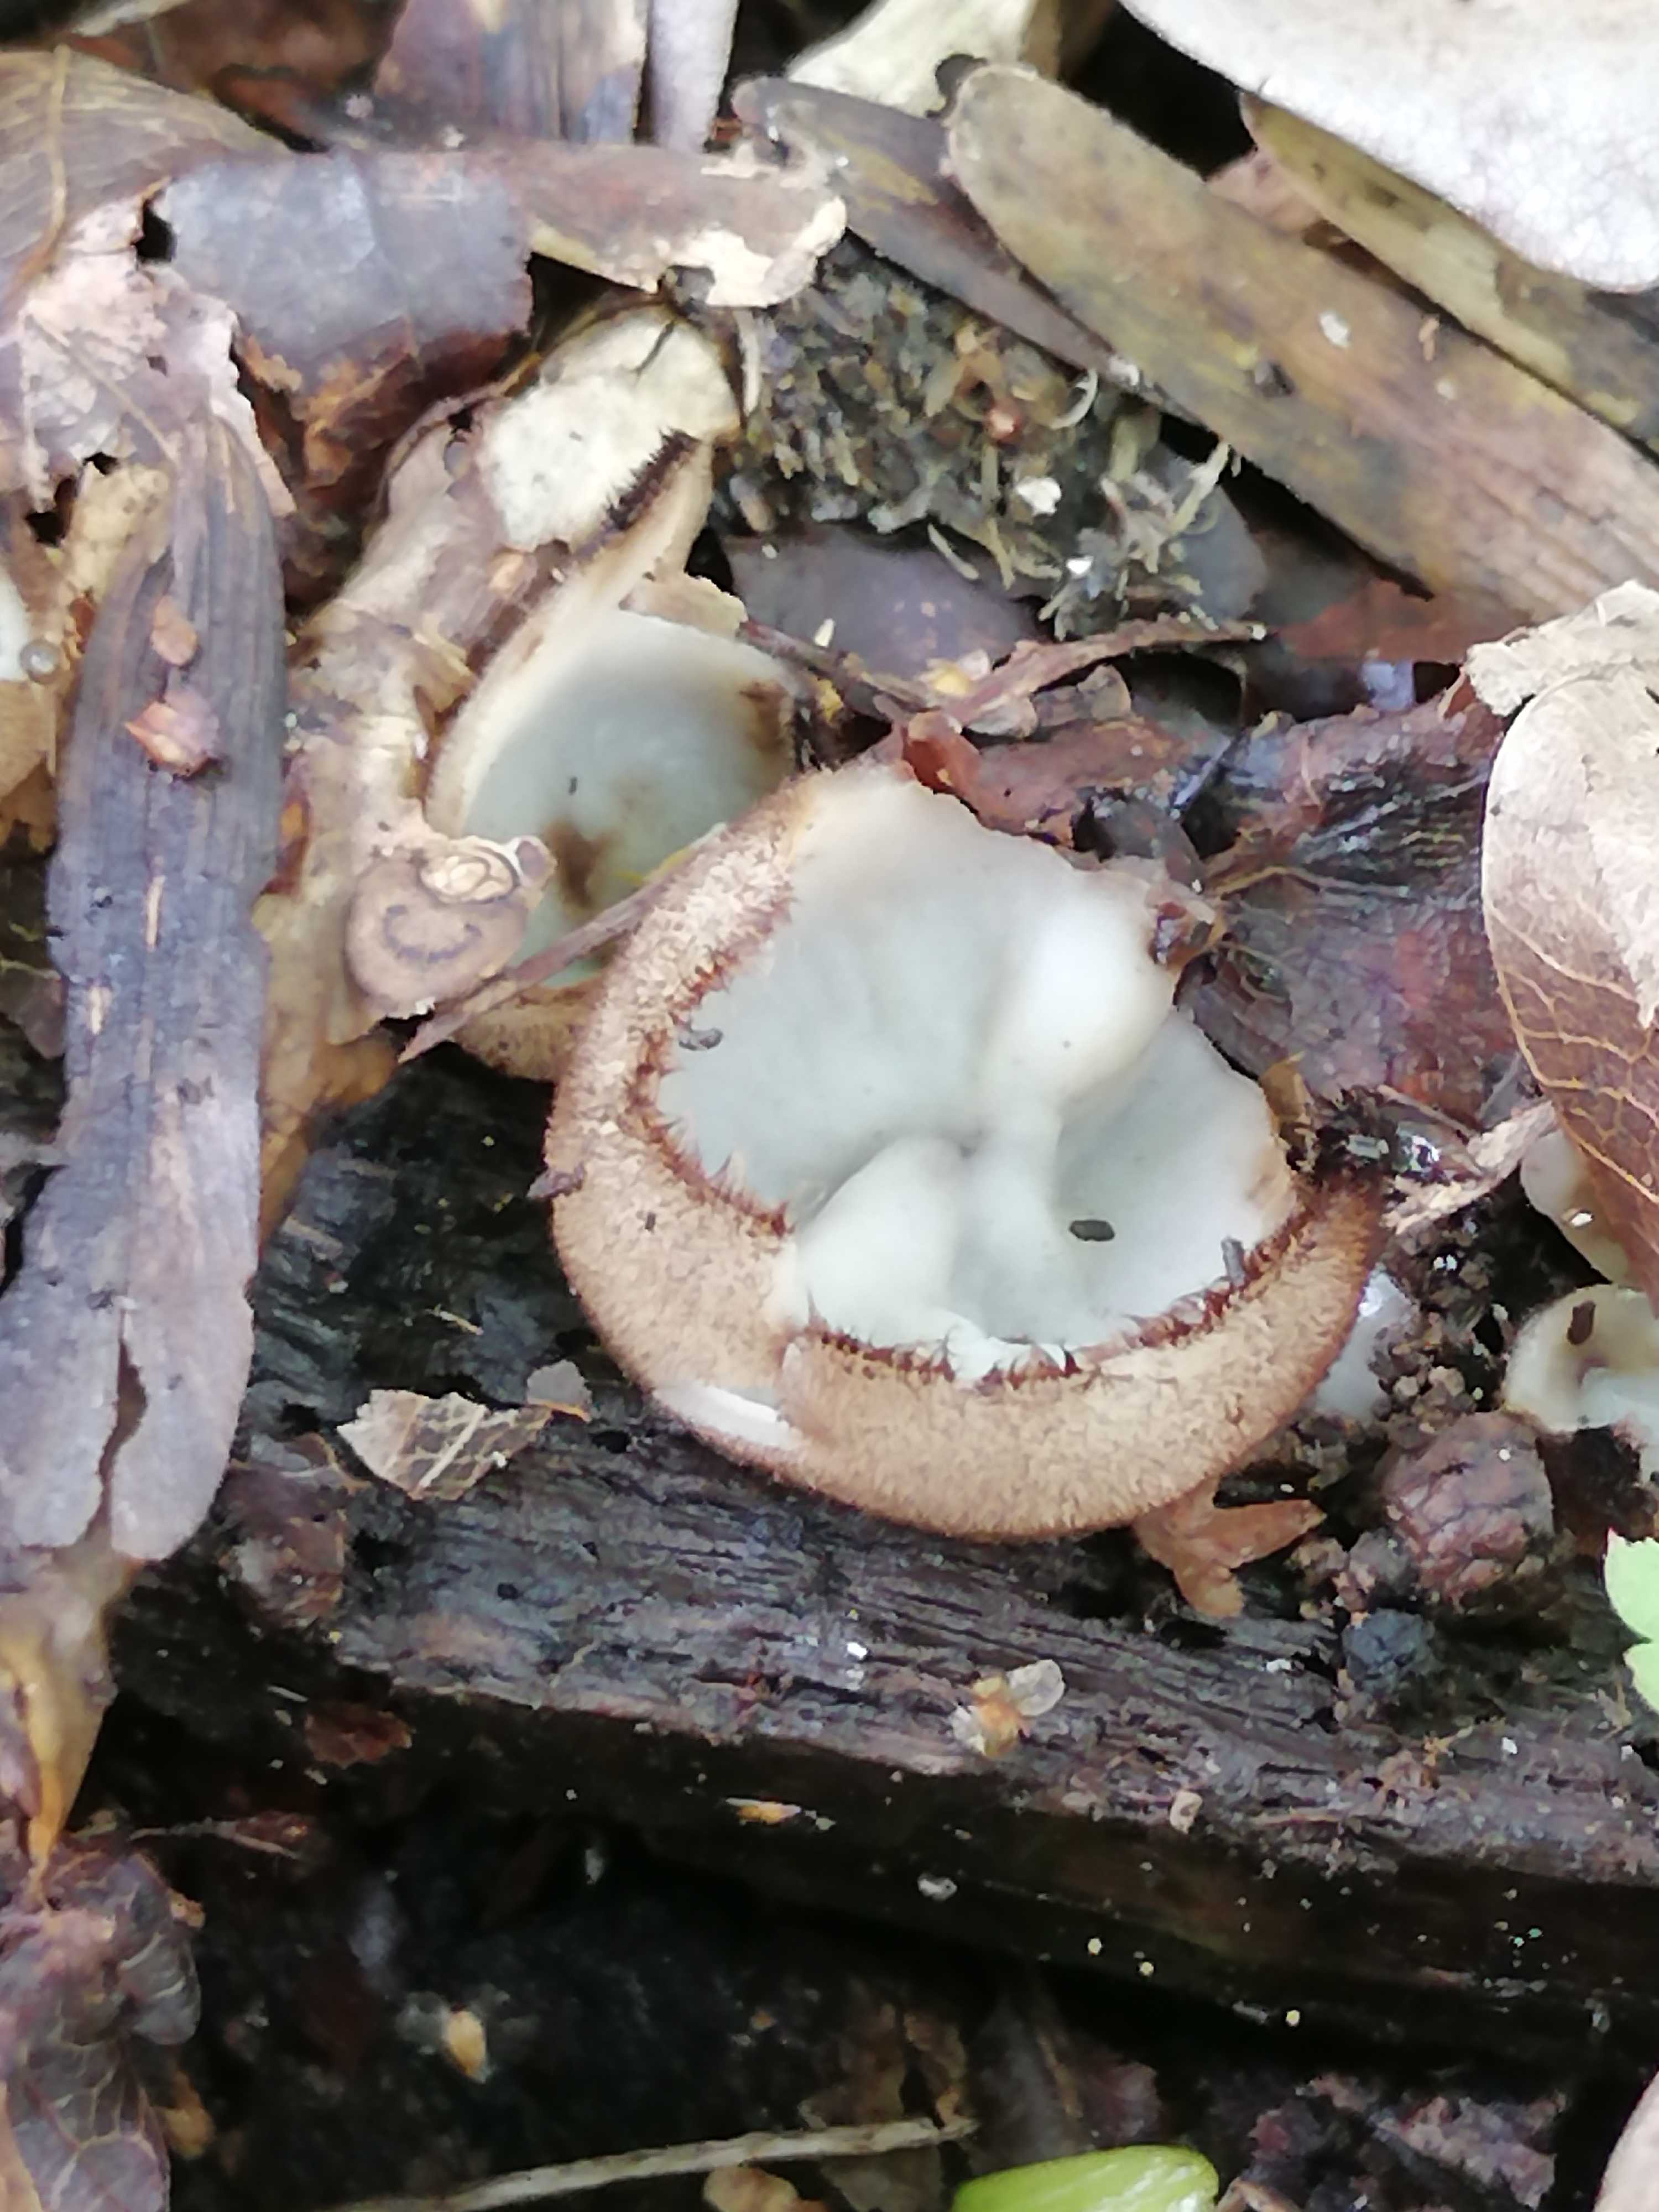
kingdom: Fungi
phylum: Ascomycota
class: Pezizomycetes
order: Pezizales
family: Pyronemataceae
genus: Humaria
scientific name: Humaria hemisphaerica
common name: halvkugleformet børstebæger
